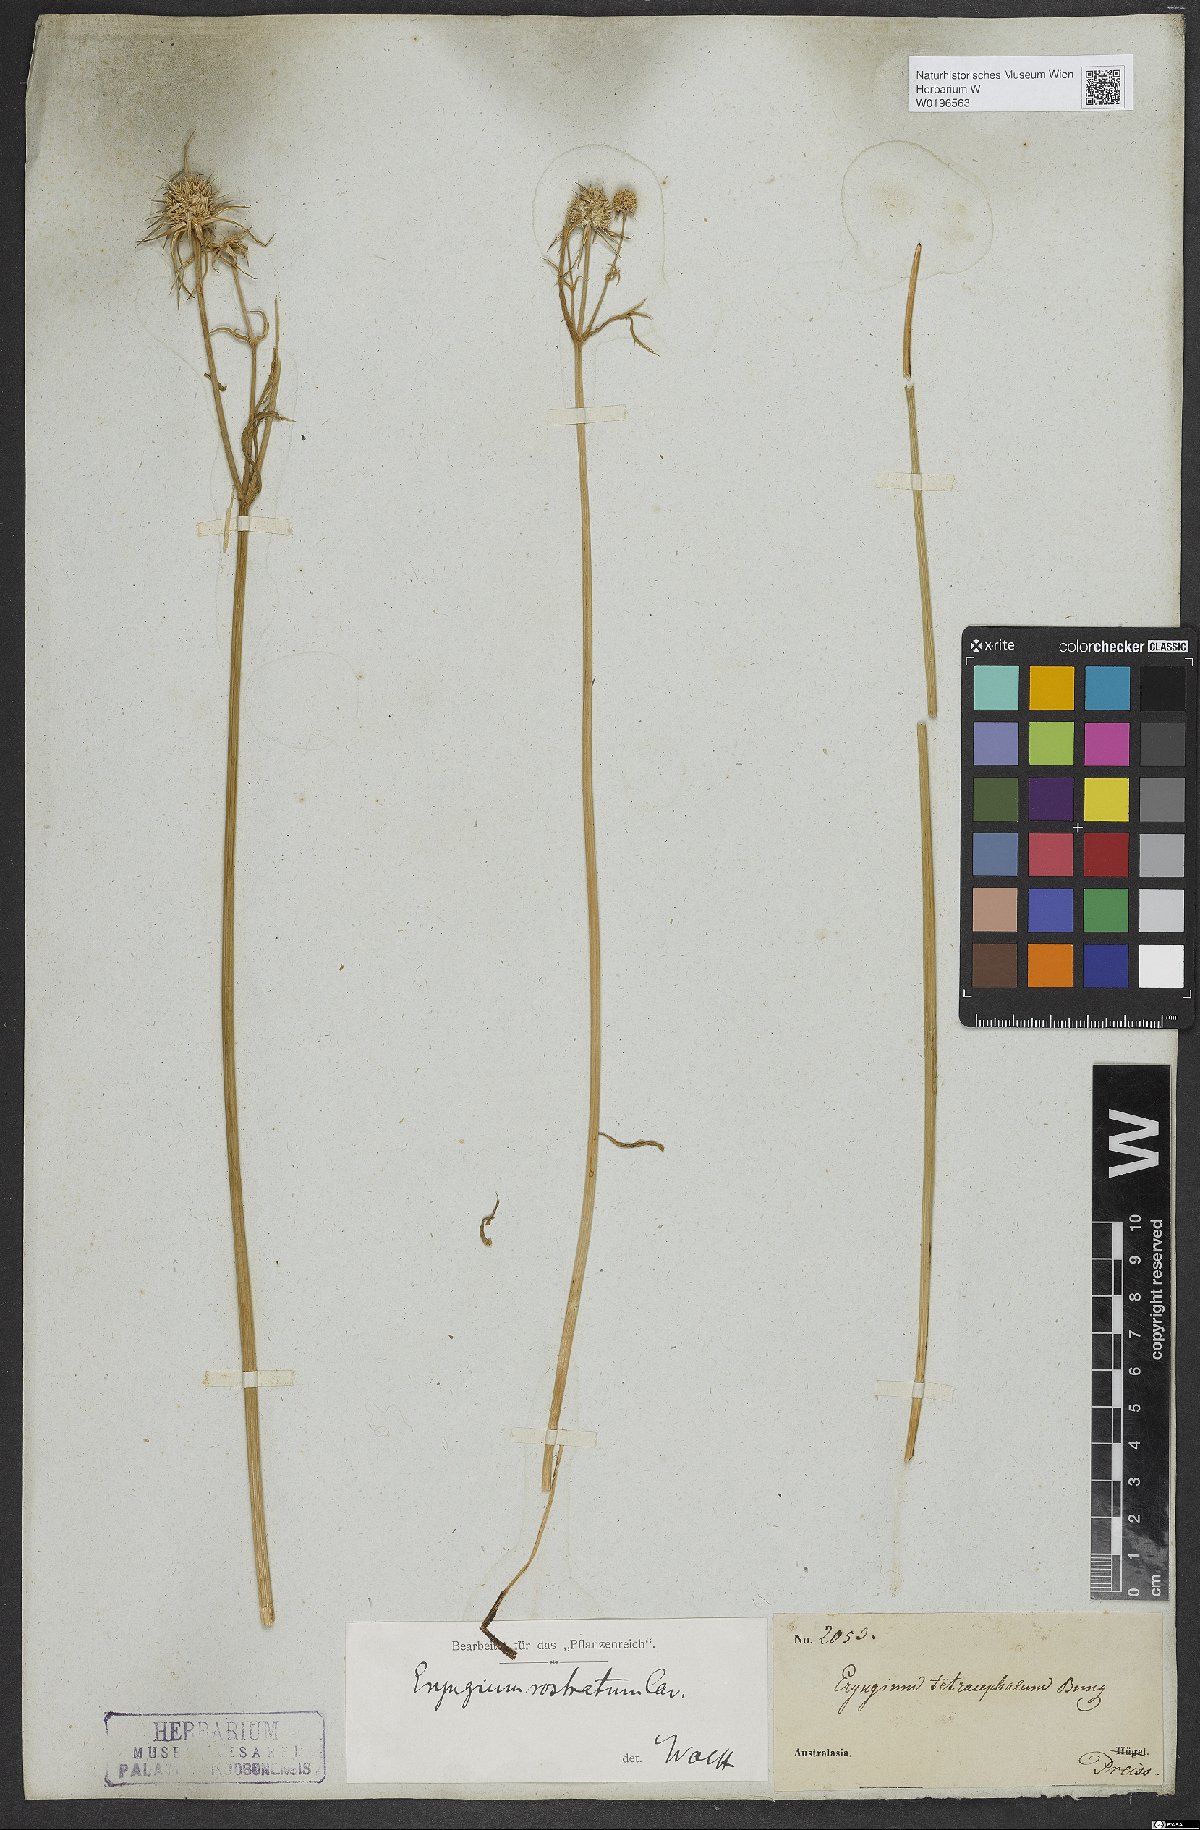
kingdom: Plantae
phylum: Tracheophyta
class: Magnoliopsida
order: Apiales
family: Apiaceae
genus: Eryngium
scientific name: Eryngium rostratum
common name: Blue eryngo
